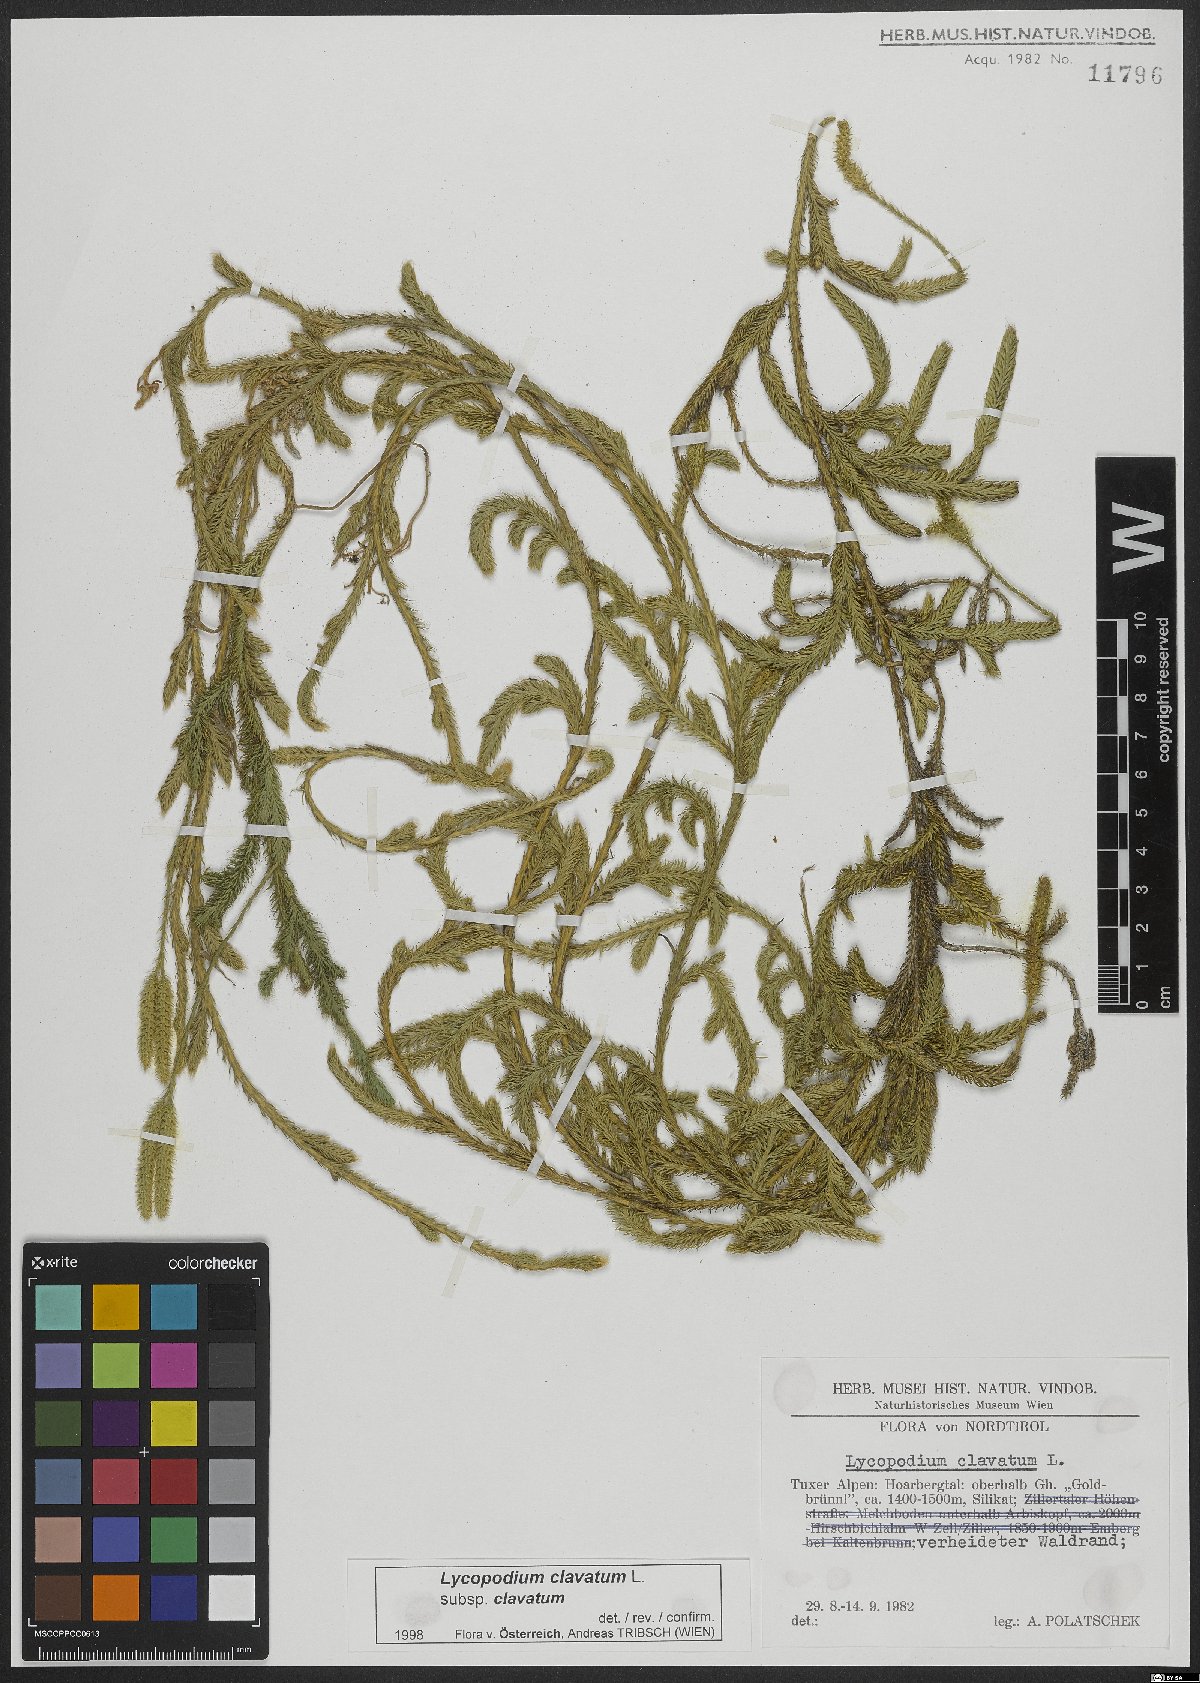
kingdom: Plantae
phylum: Tracheophyta
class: Lycopodiopsida
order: Lycopodiales
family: Lycopodiaceae
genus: Lycopodium
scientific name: Lycopodium clavatum
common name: Stag's-horn clubmoss
